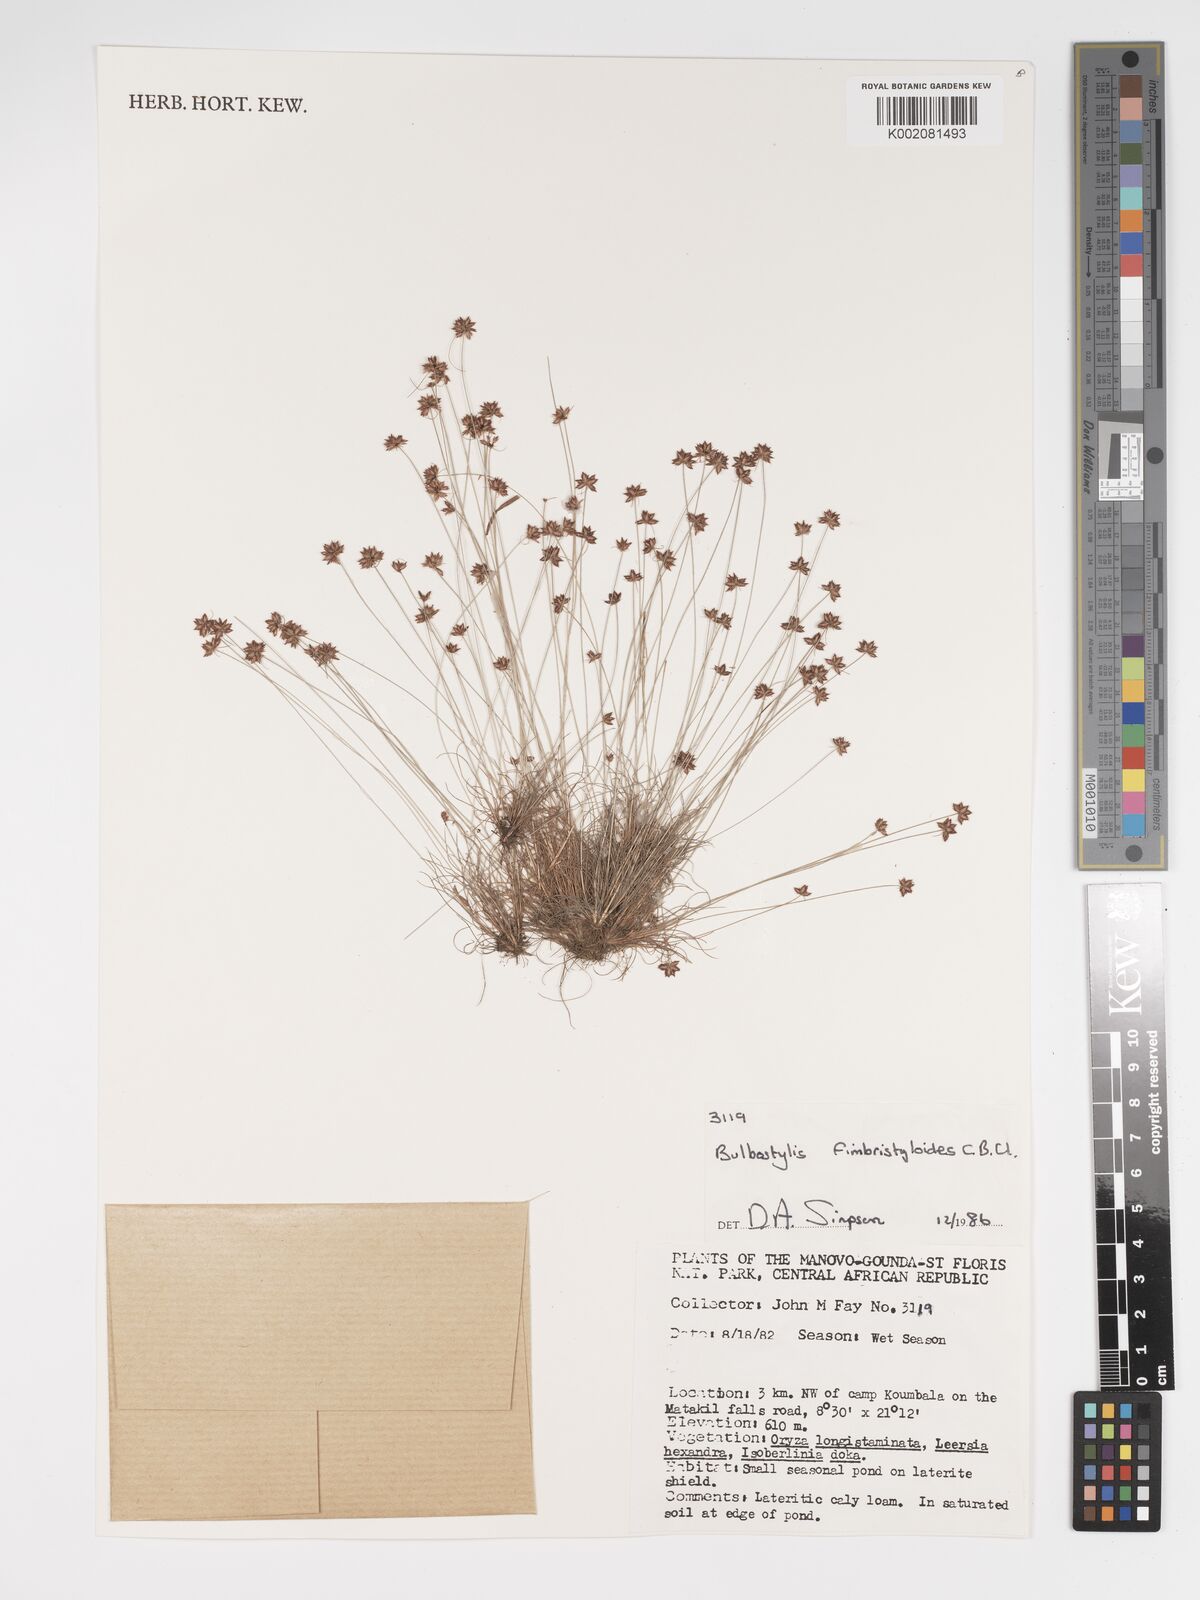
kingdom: Plantae
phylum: Tracheophyta
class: Liliopsida
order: Poales
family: Cyperaceae
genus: Bulbostylis
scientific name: Bulbostylis fimbristyloides
